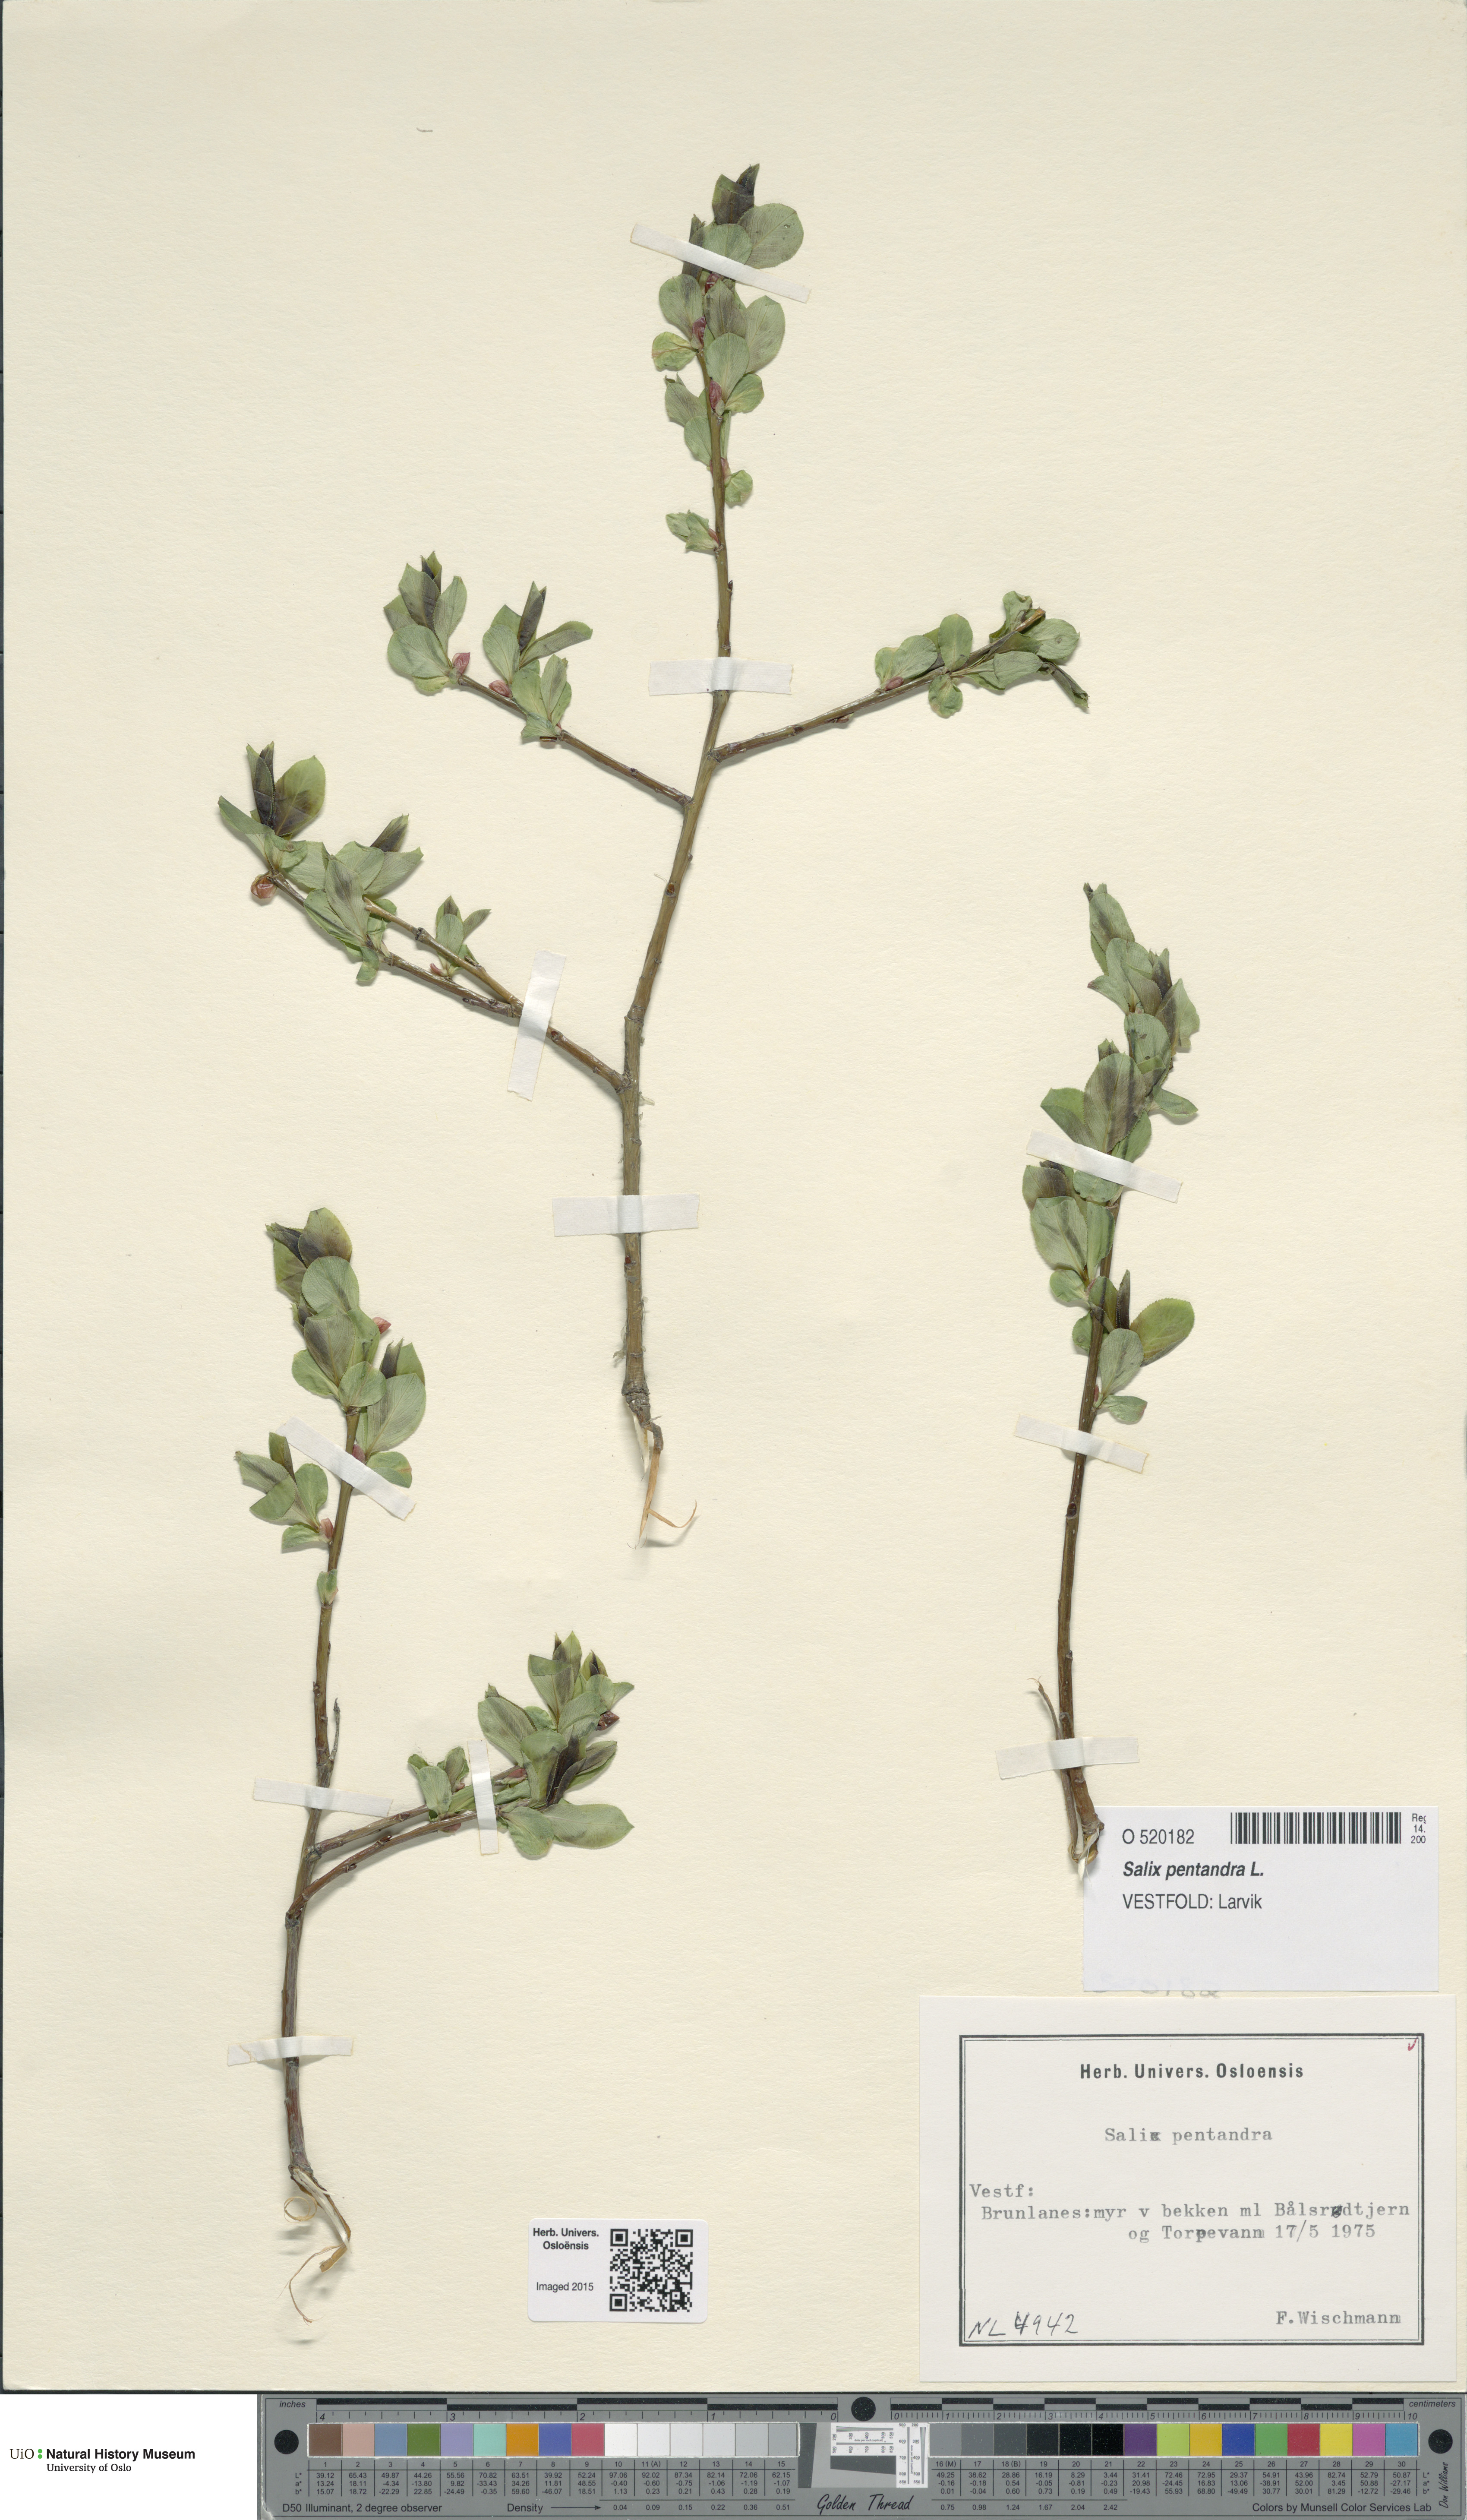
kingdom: Plantae
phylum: Tracheophyta
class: Magnoliopsida
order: Malpighiales
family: Salicaceae
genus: Salix
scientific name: Salix pentandra
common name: Bay willow
